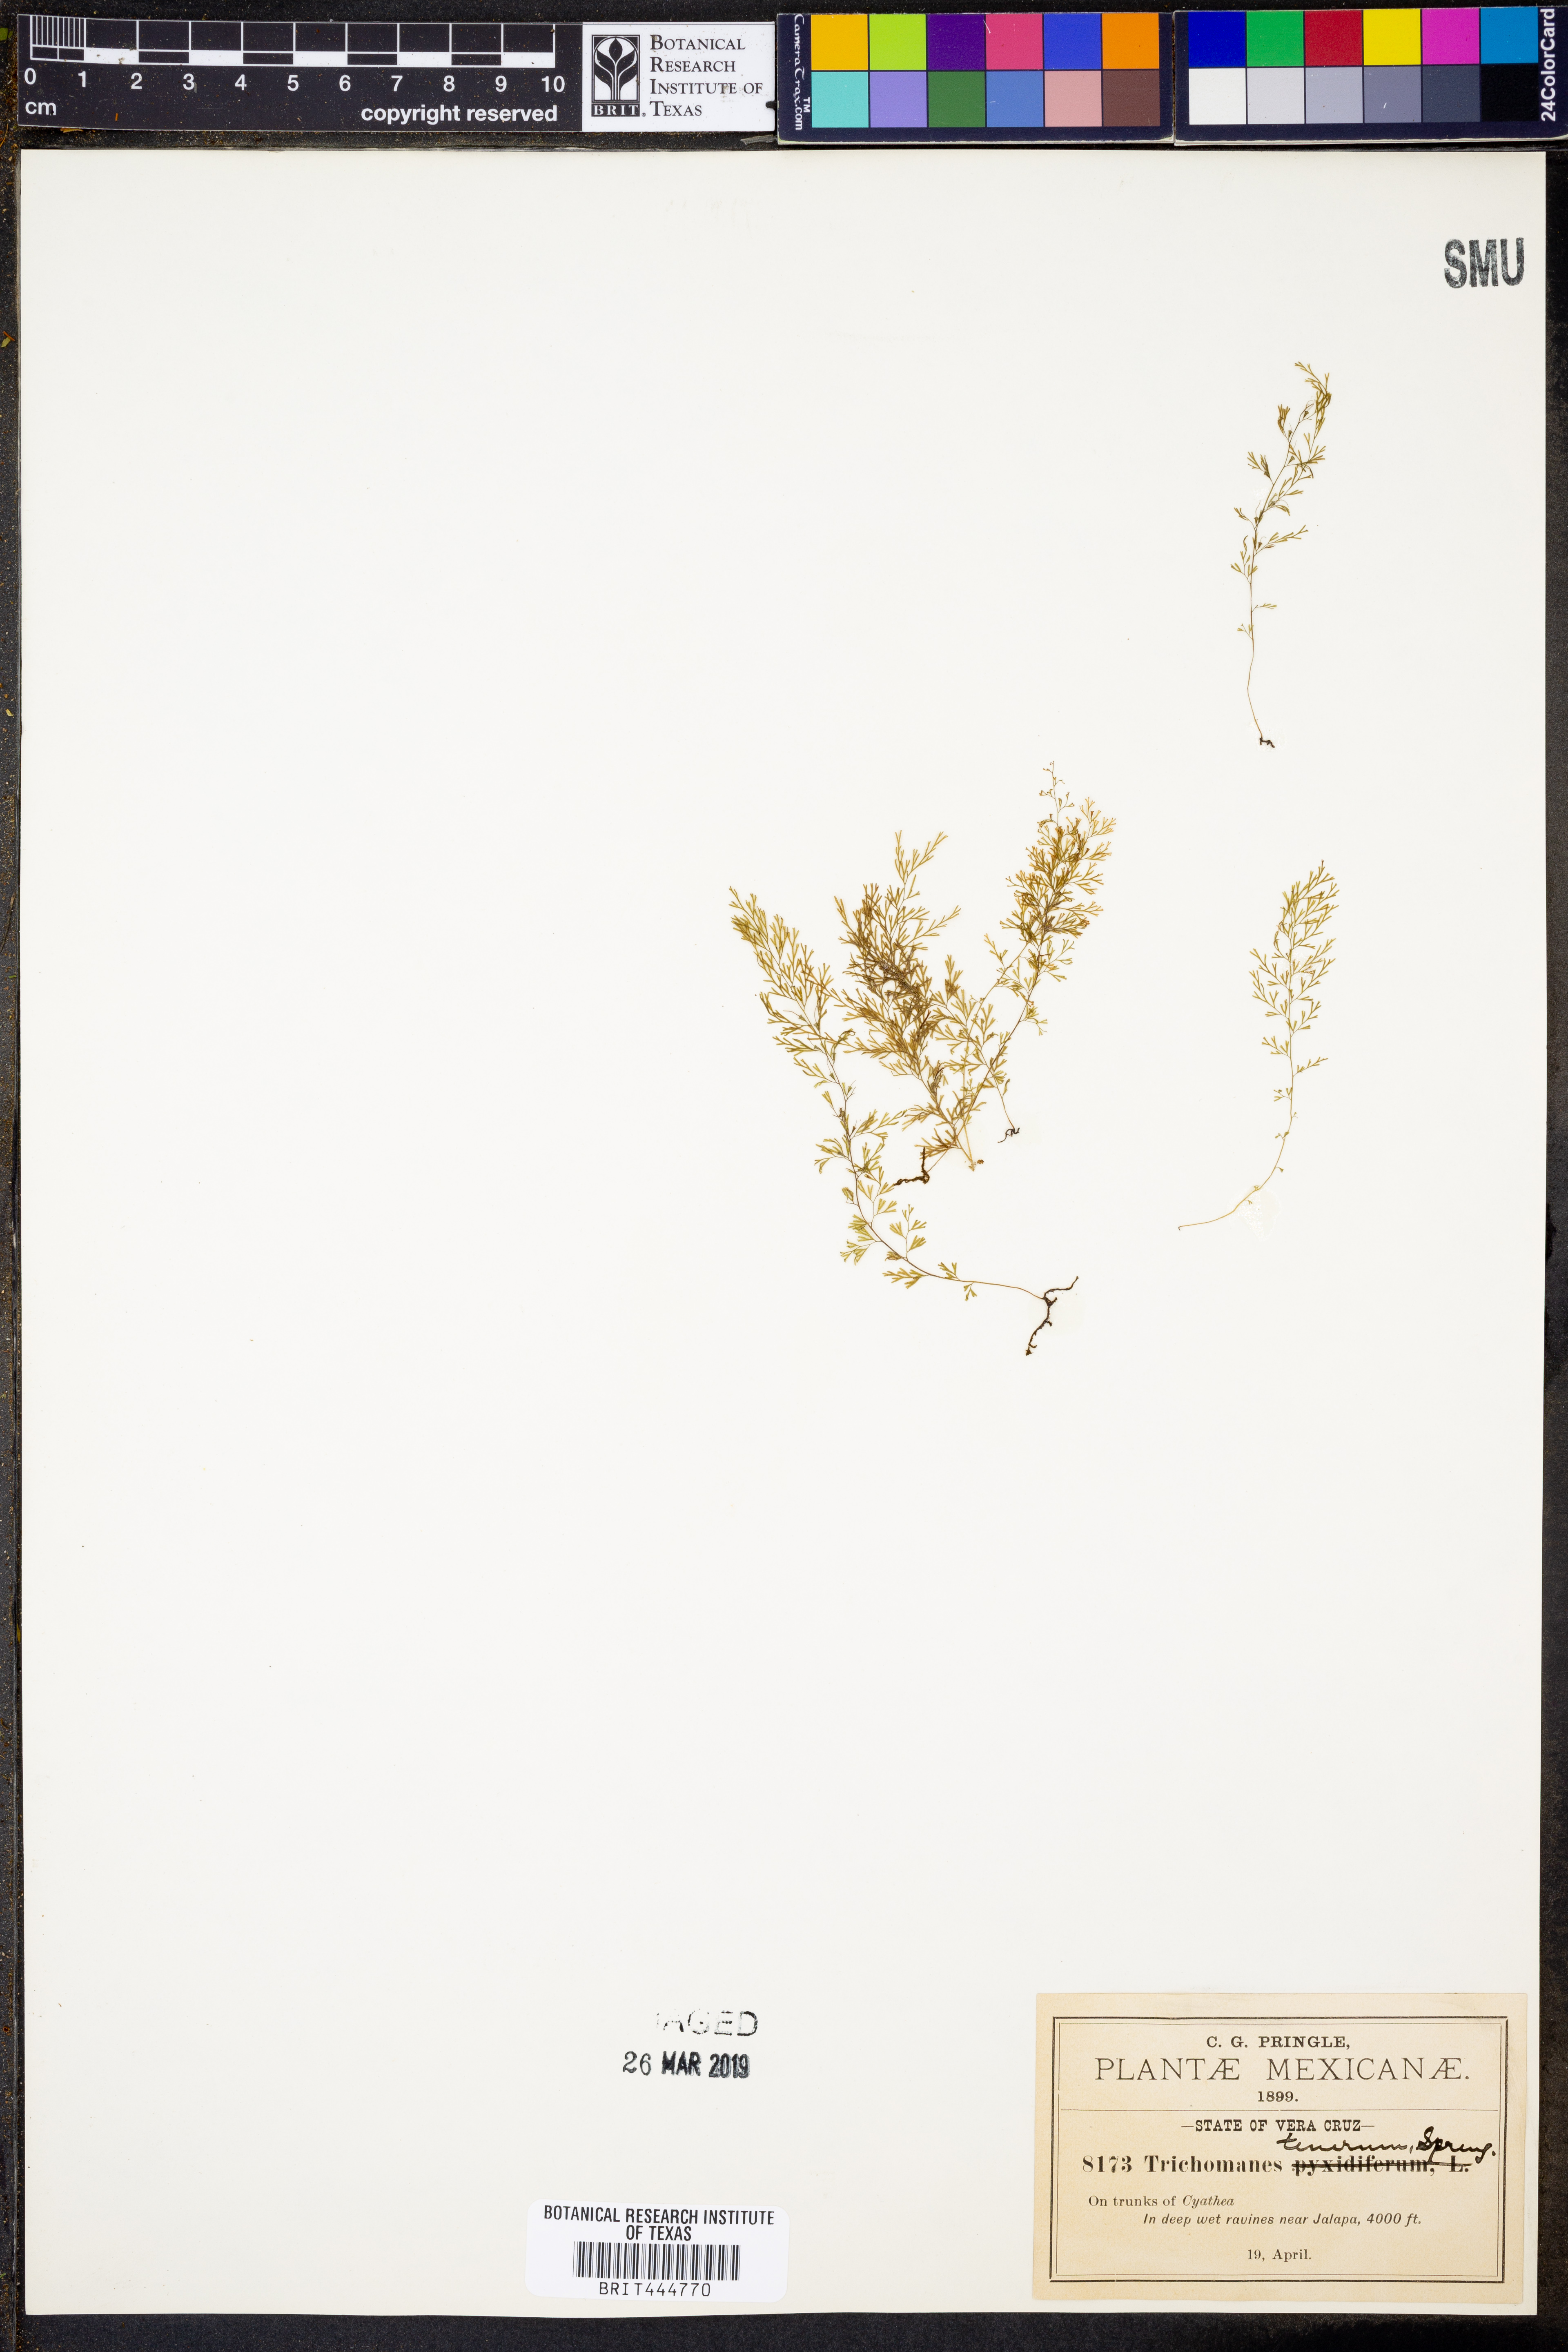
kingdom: Plantae
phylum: Tracheophyta
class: Polypodiopsida
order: Hymenophyllales
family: Hymenophyllaceae
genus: Polyphlebium
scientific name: Polyphlebium angustatum
